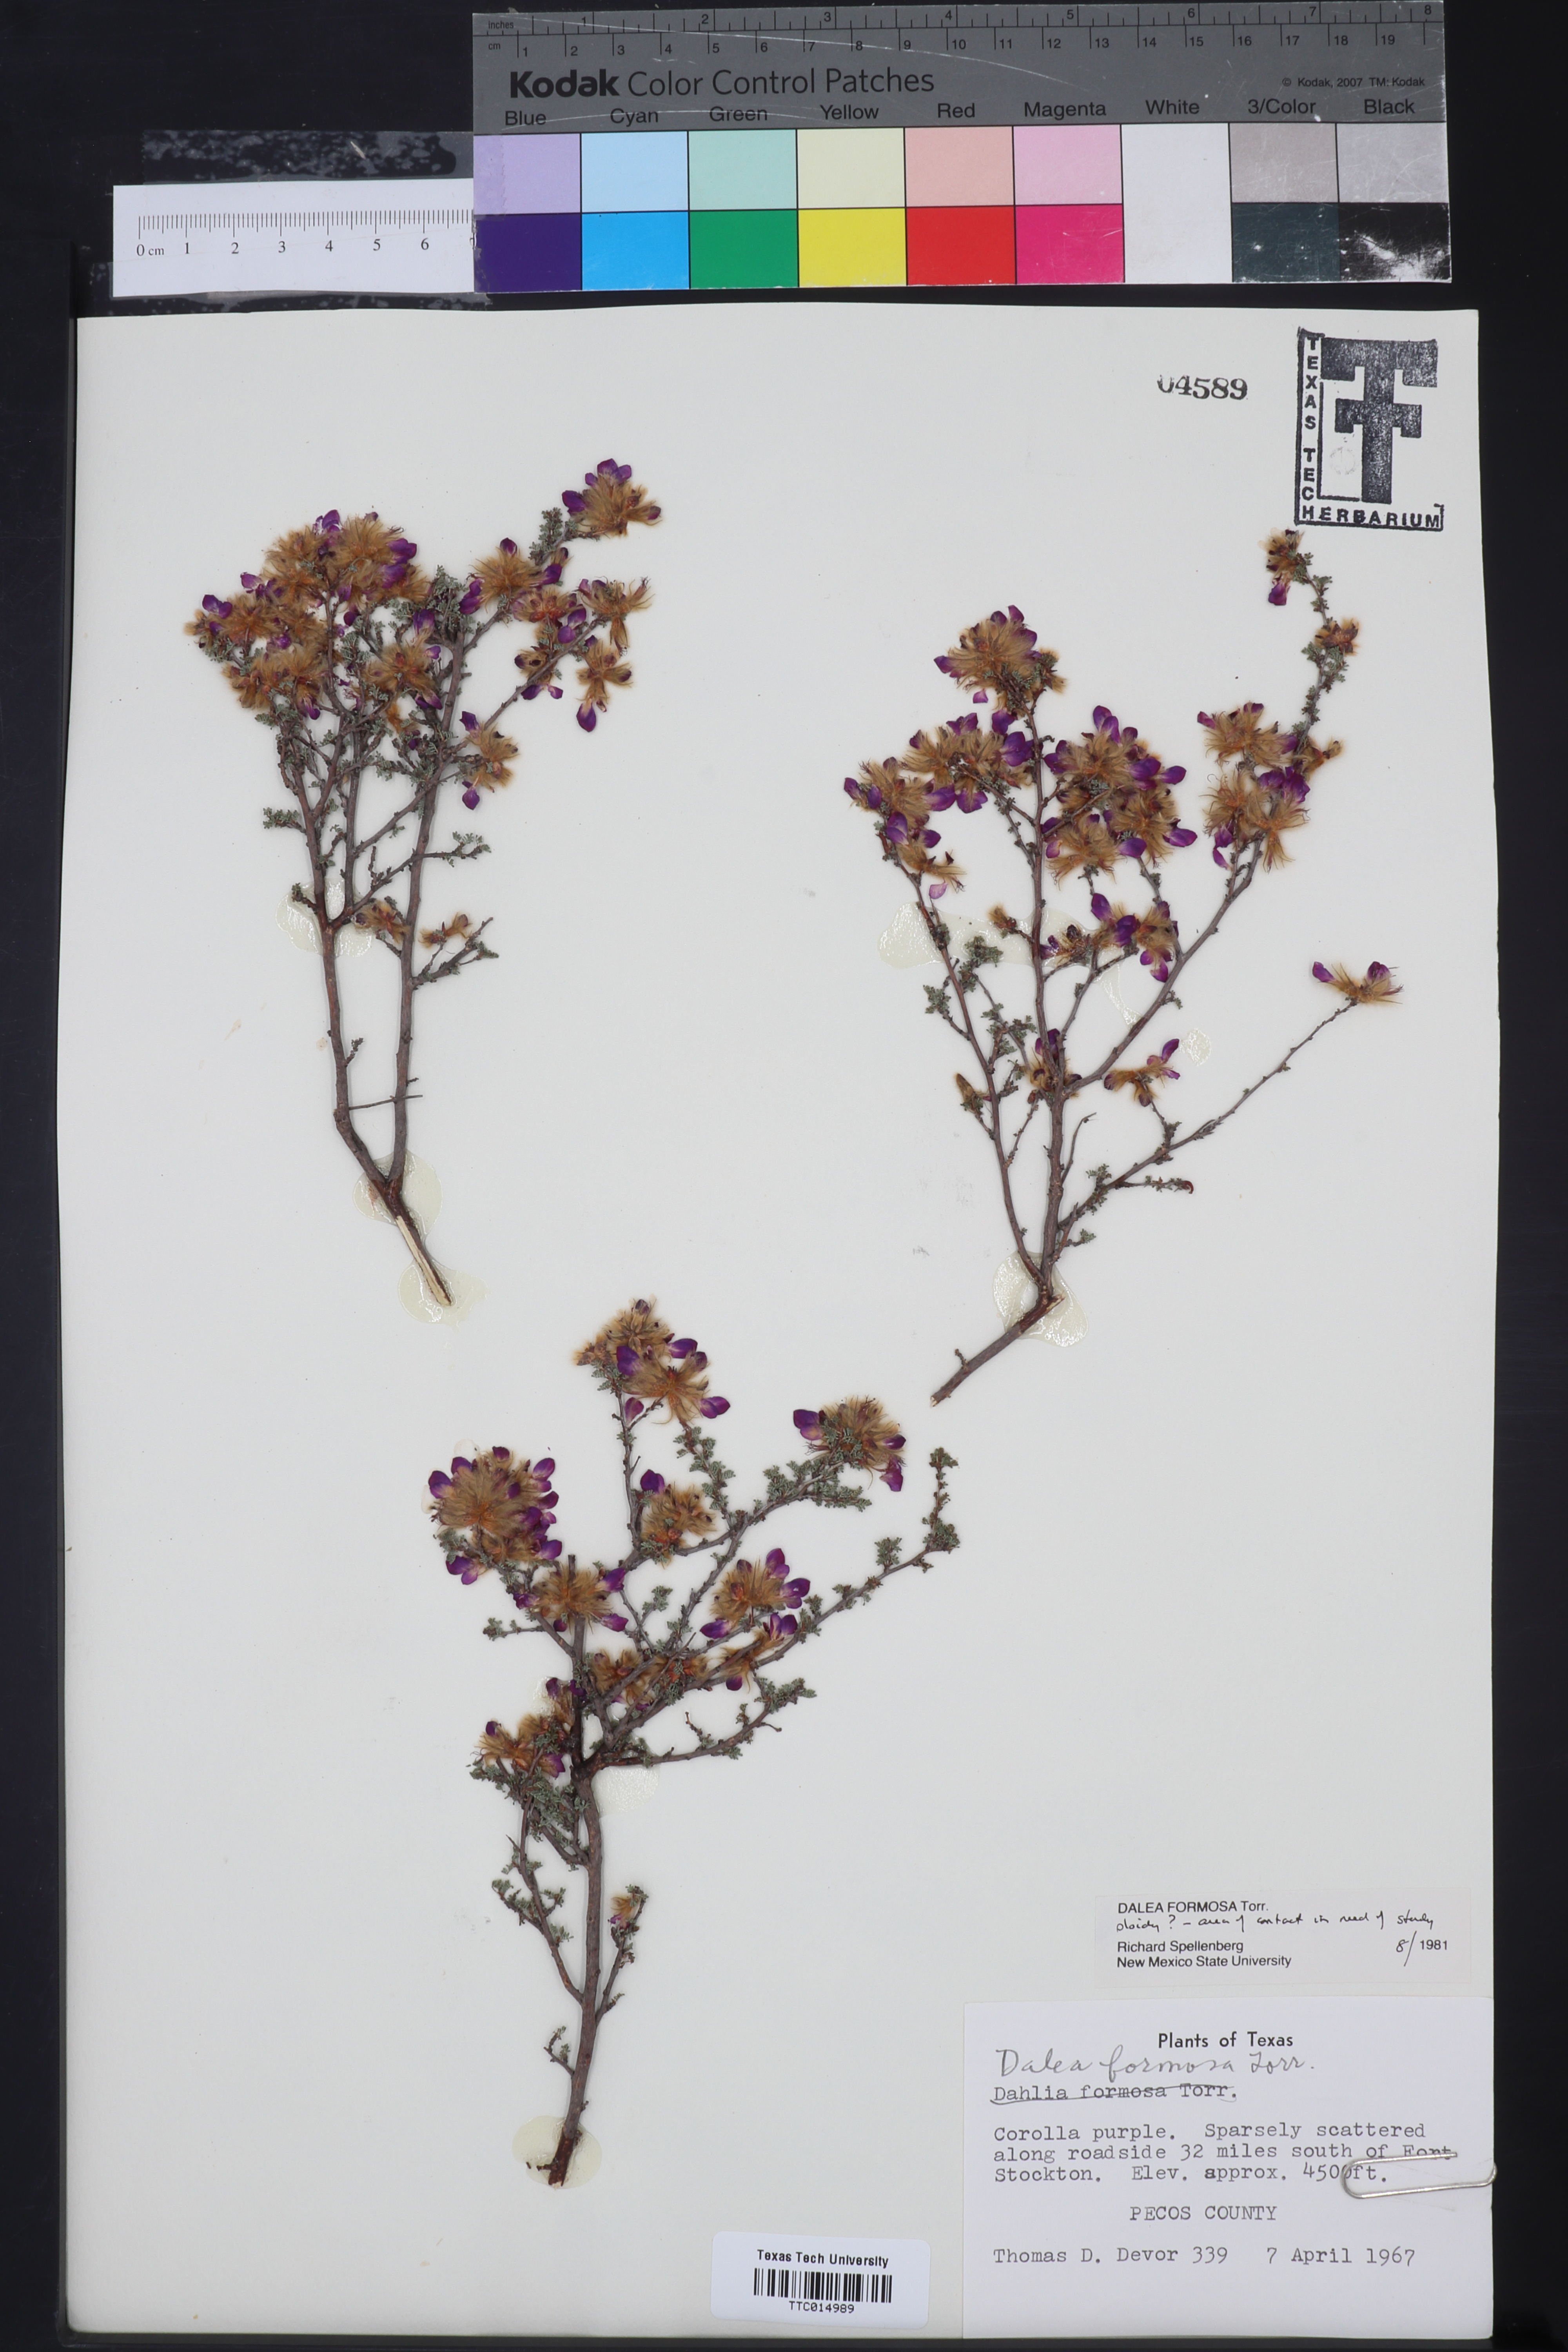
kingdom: Plantae
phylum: Tracheophyta
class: Magnoliopsida
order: Fabales
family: Fabaceae
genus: Dalea
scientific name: Dalea formosa
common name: Feather-plume dalea
